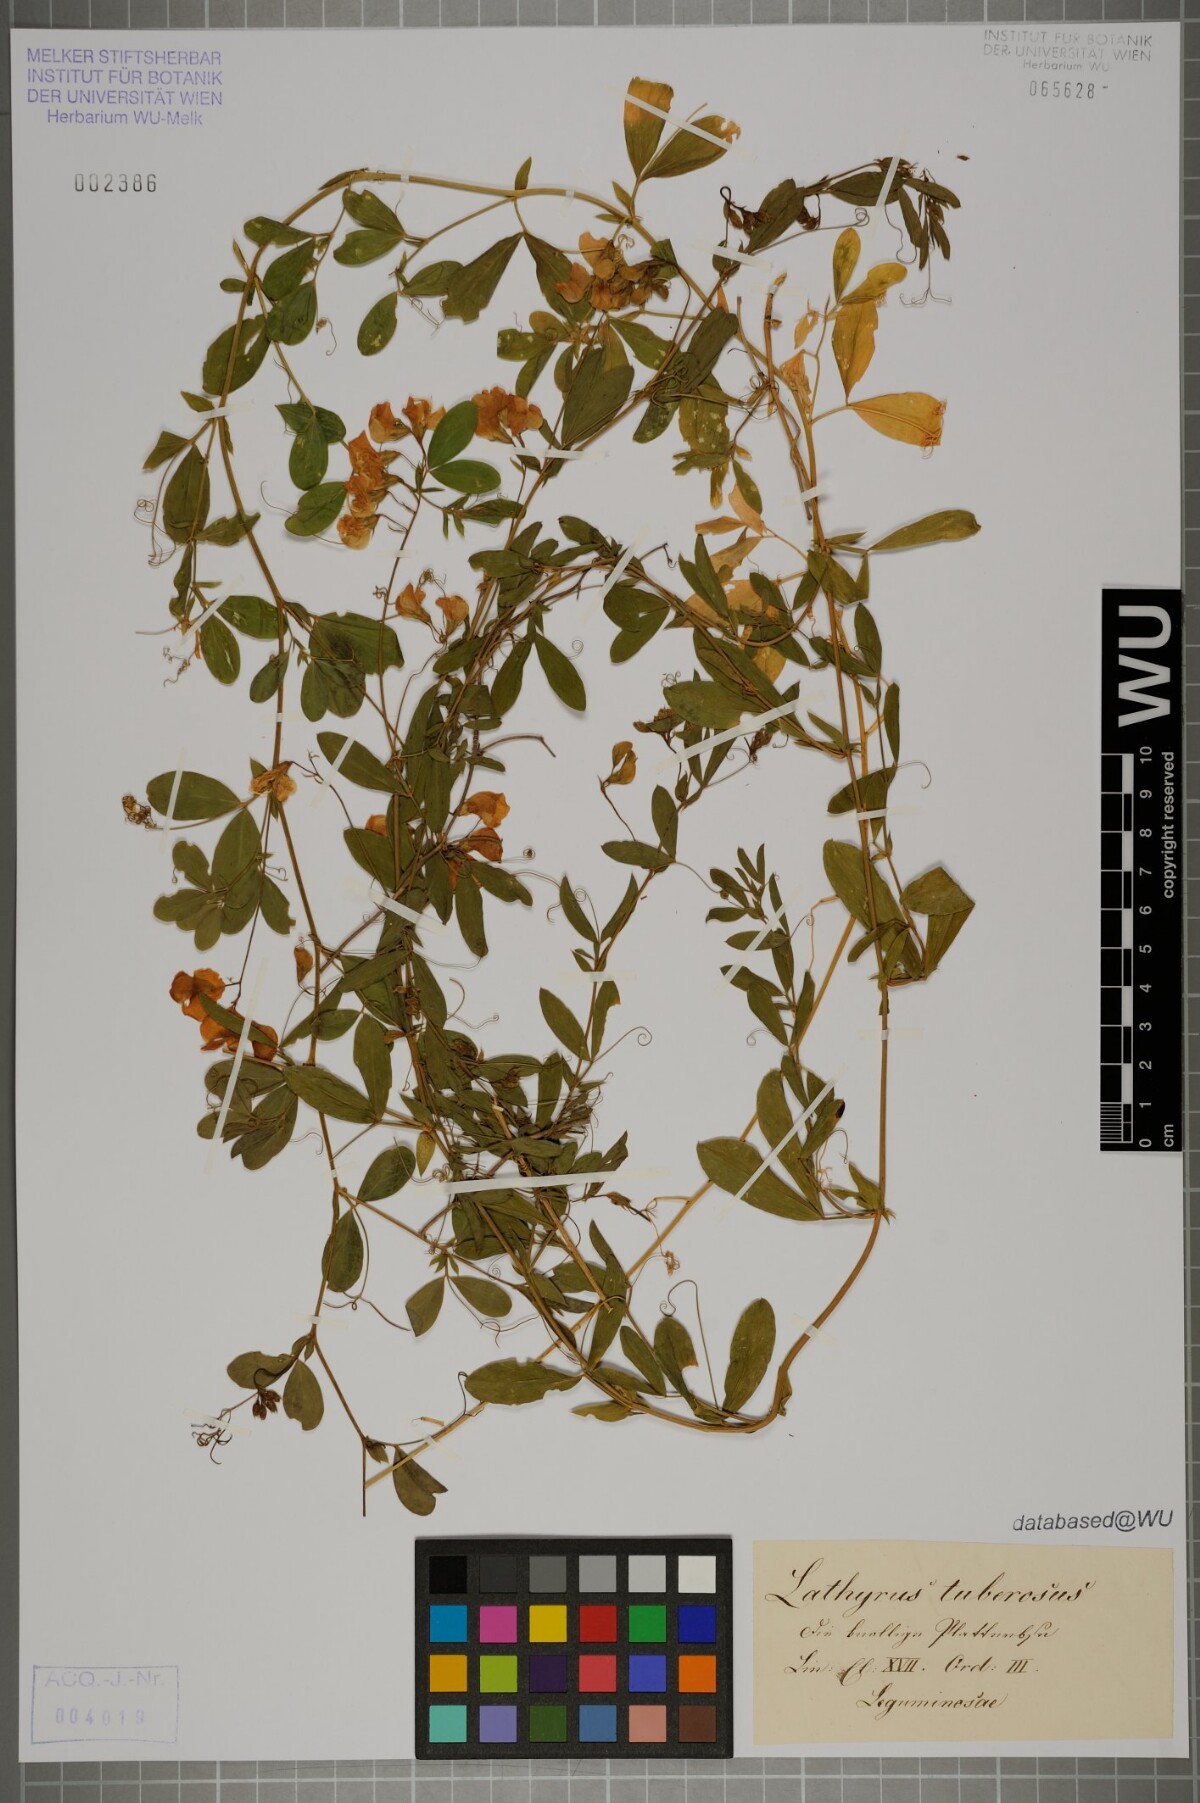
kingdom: Plantae
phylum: Tracheophyta
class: Magnoliopsida
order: Fabales
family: Fabaceae
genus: Lathyrus
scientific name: Lathyrus tuberosus
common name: Tuberous pea
